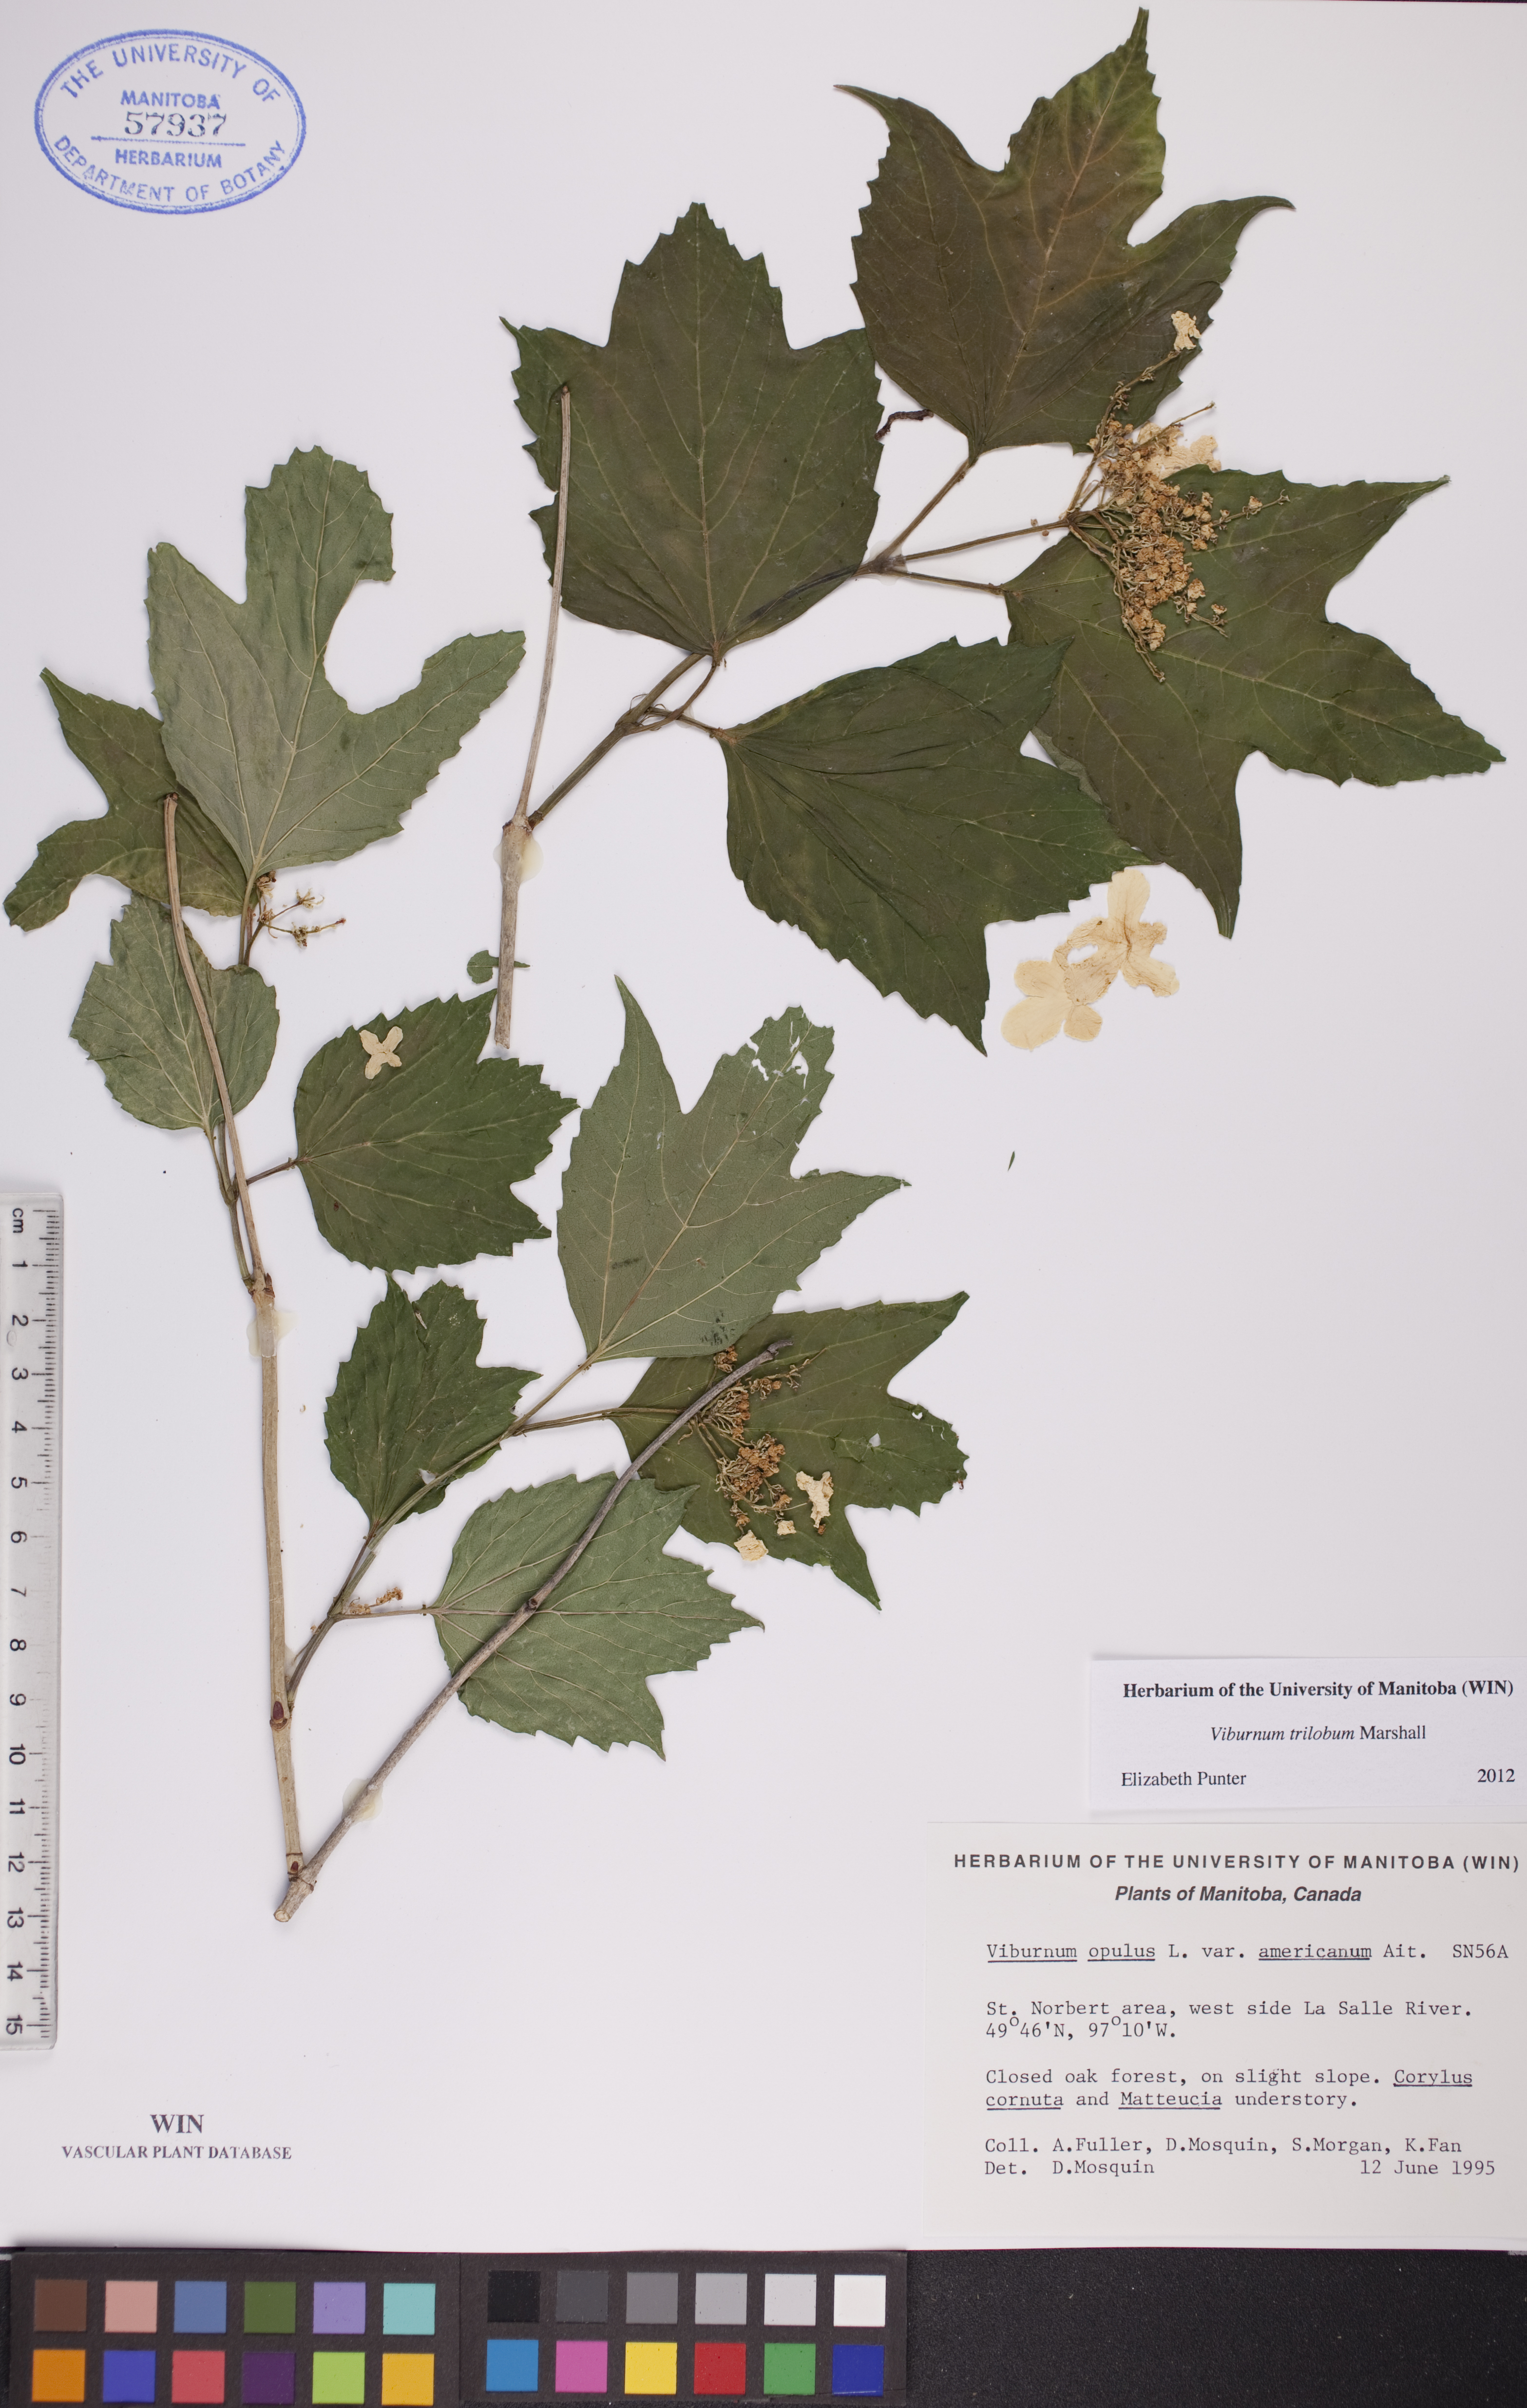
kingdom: Plantae
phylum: Tracheophyta
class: Magnoliopsida
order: Dipsacales
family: Viburnaceae
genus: Viburnum
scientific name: Viburnum trilobum
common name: American cranberrybush
